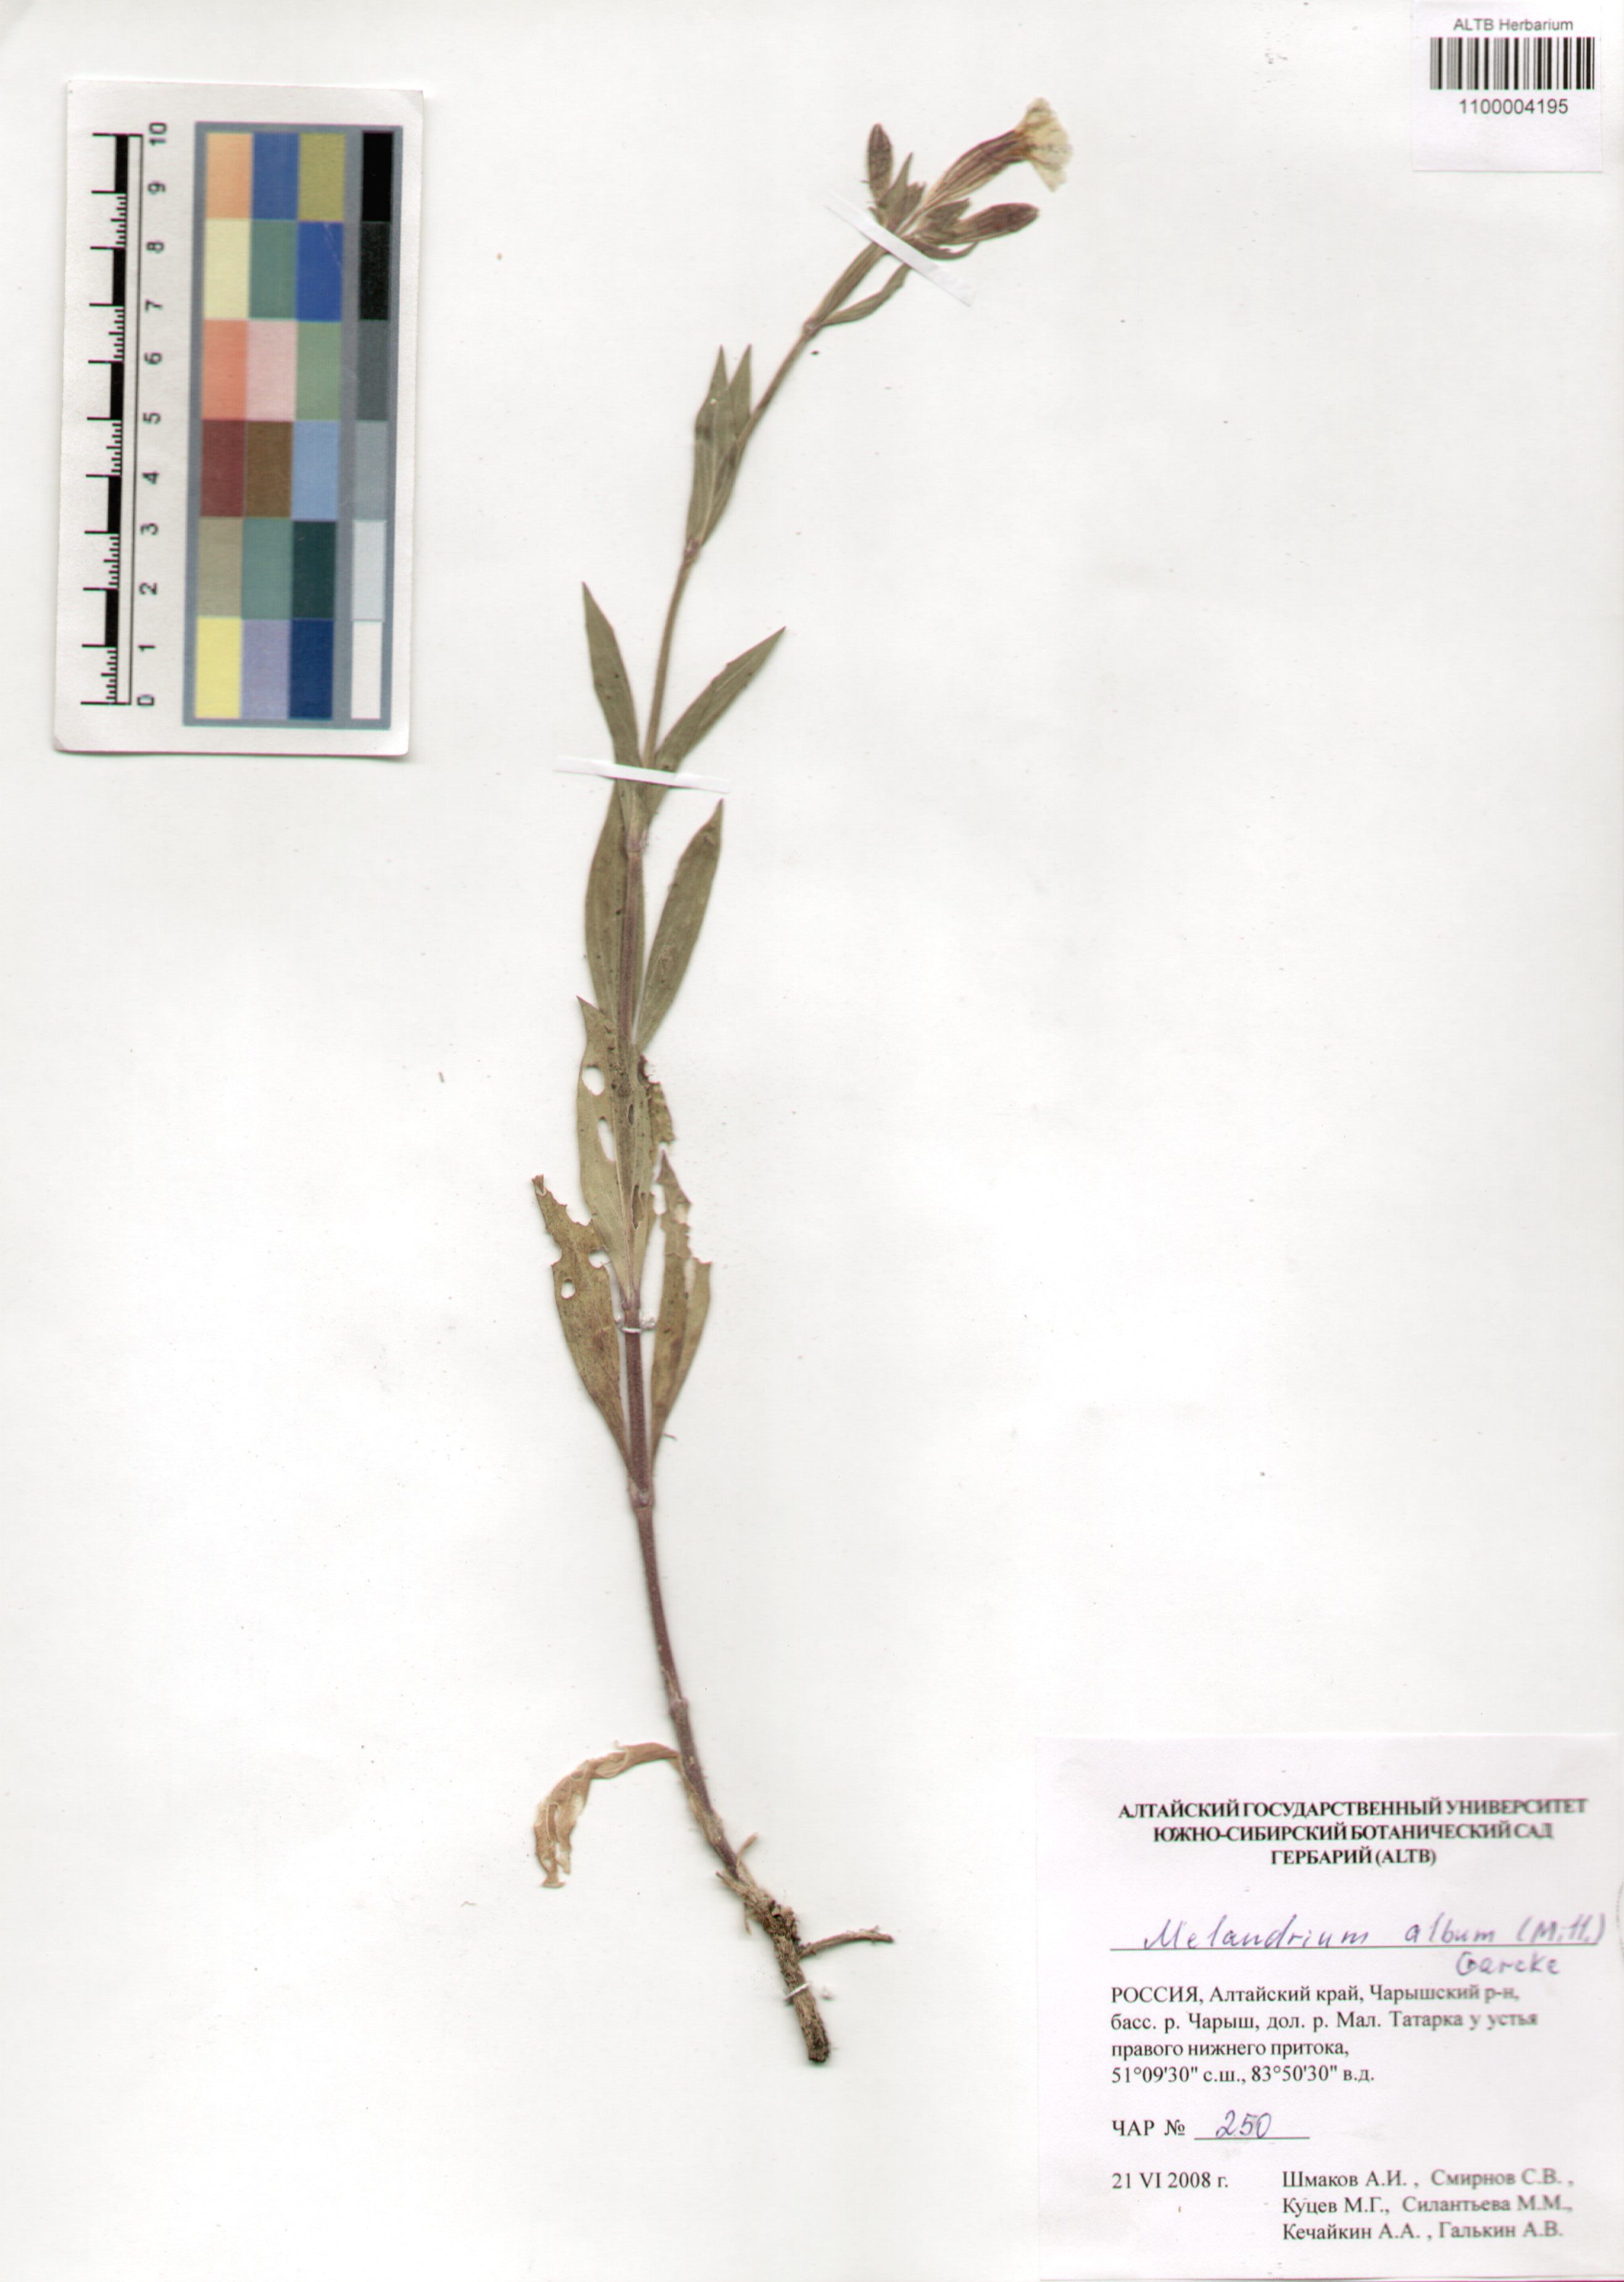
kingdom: Plantae
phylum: Tracheophyta
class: Magnoliopsida
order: Caryophyllales
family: Caryophyllaceae
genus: Silene
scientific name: Silene latifolia
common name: White campion
